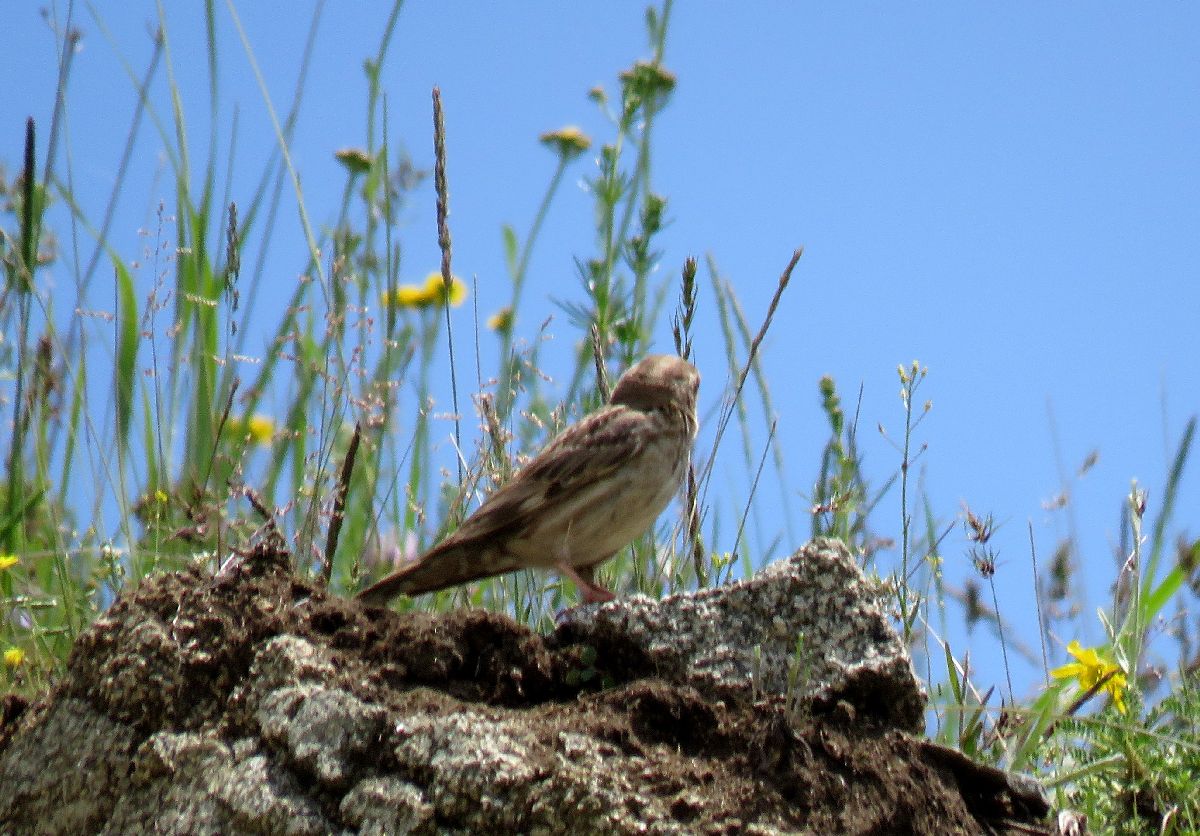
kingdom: Animalia
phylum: Chordata
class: Aves
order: Passeriformes
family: Passeridae
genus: Petronia
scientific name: Petronia petronia
